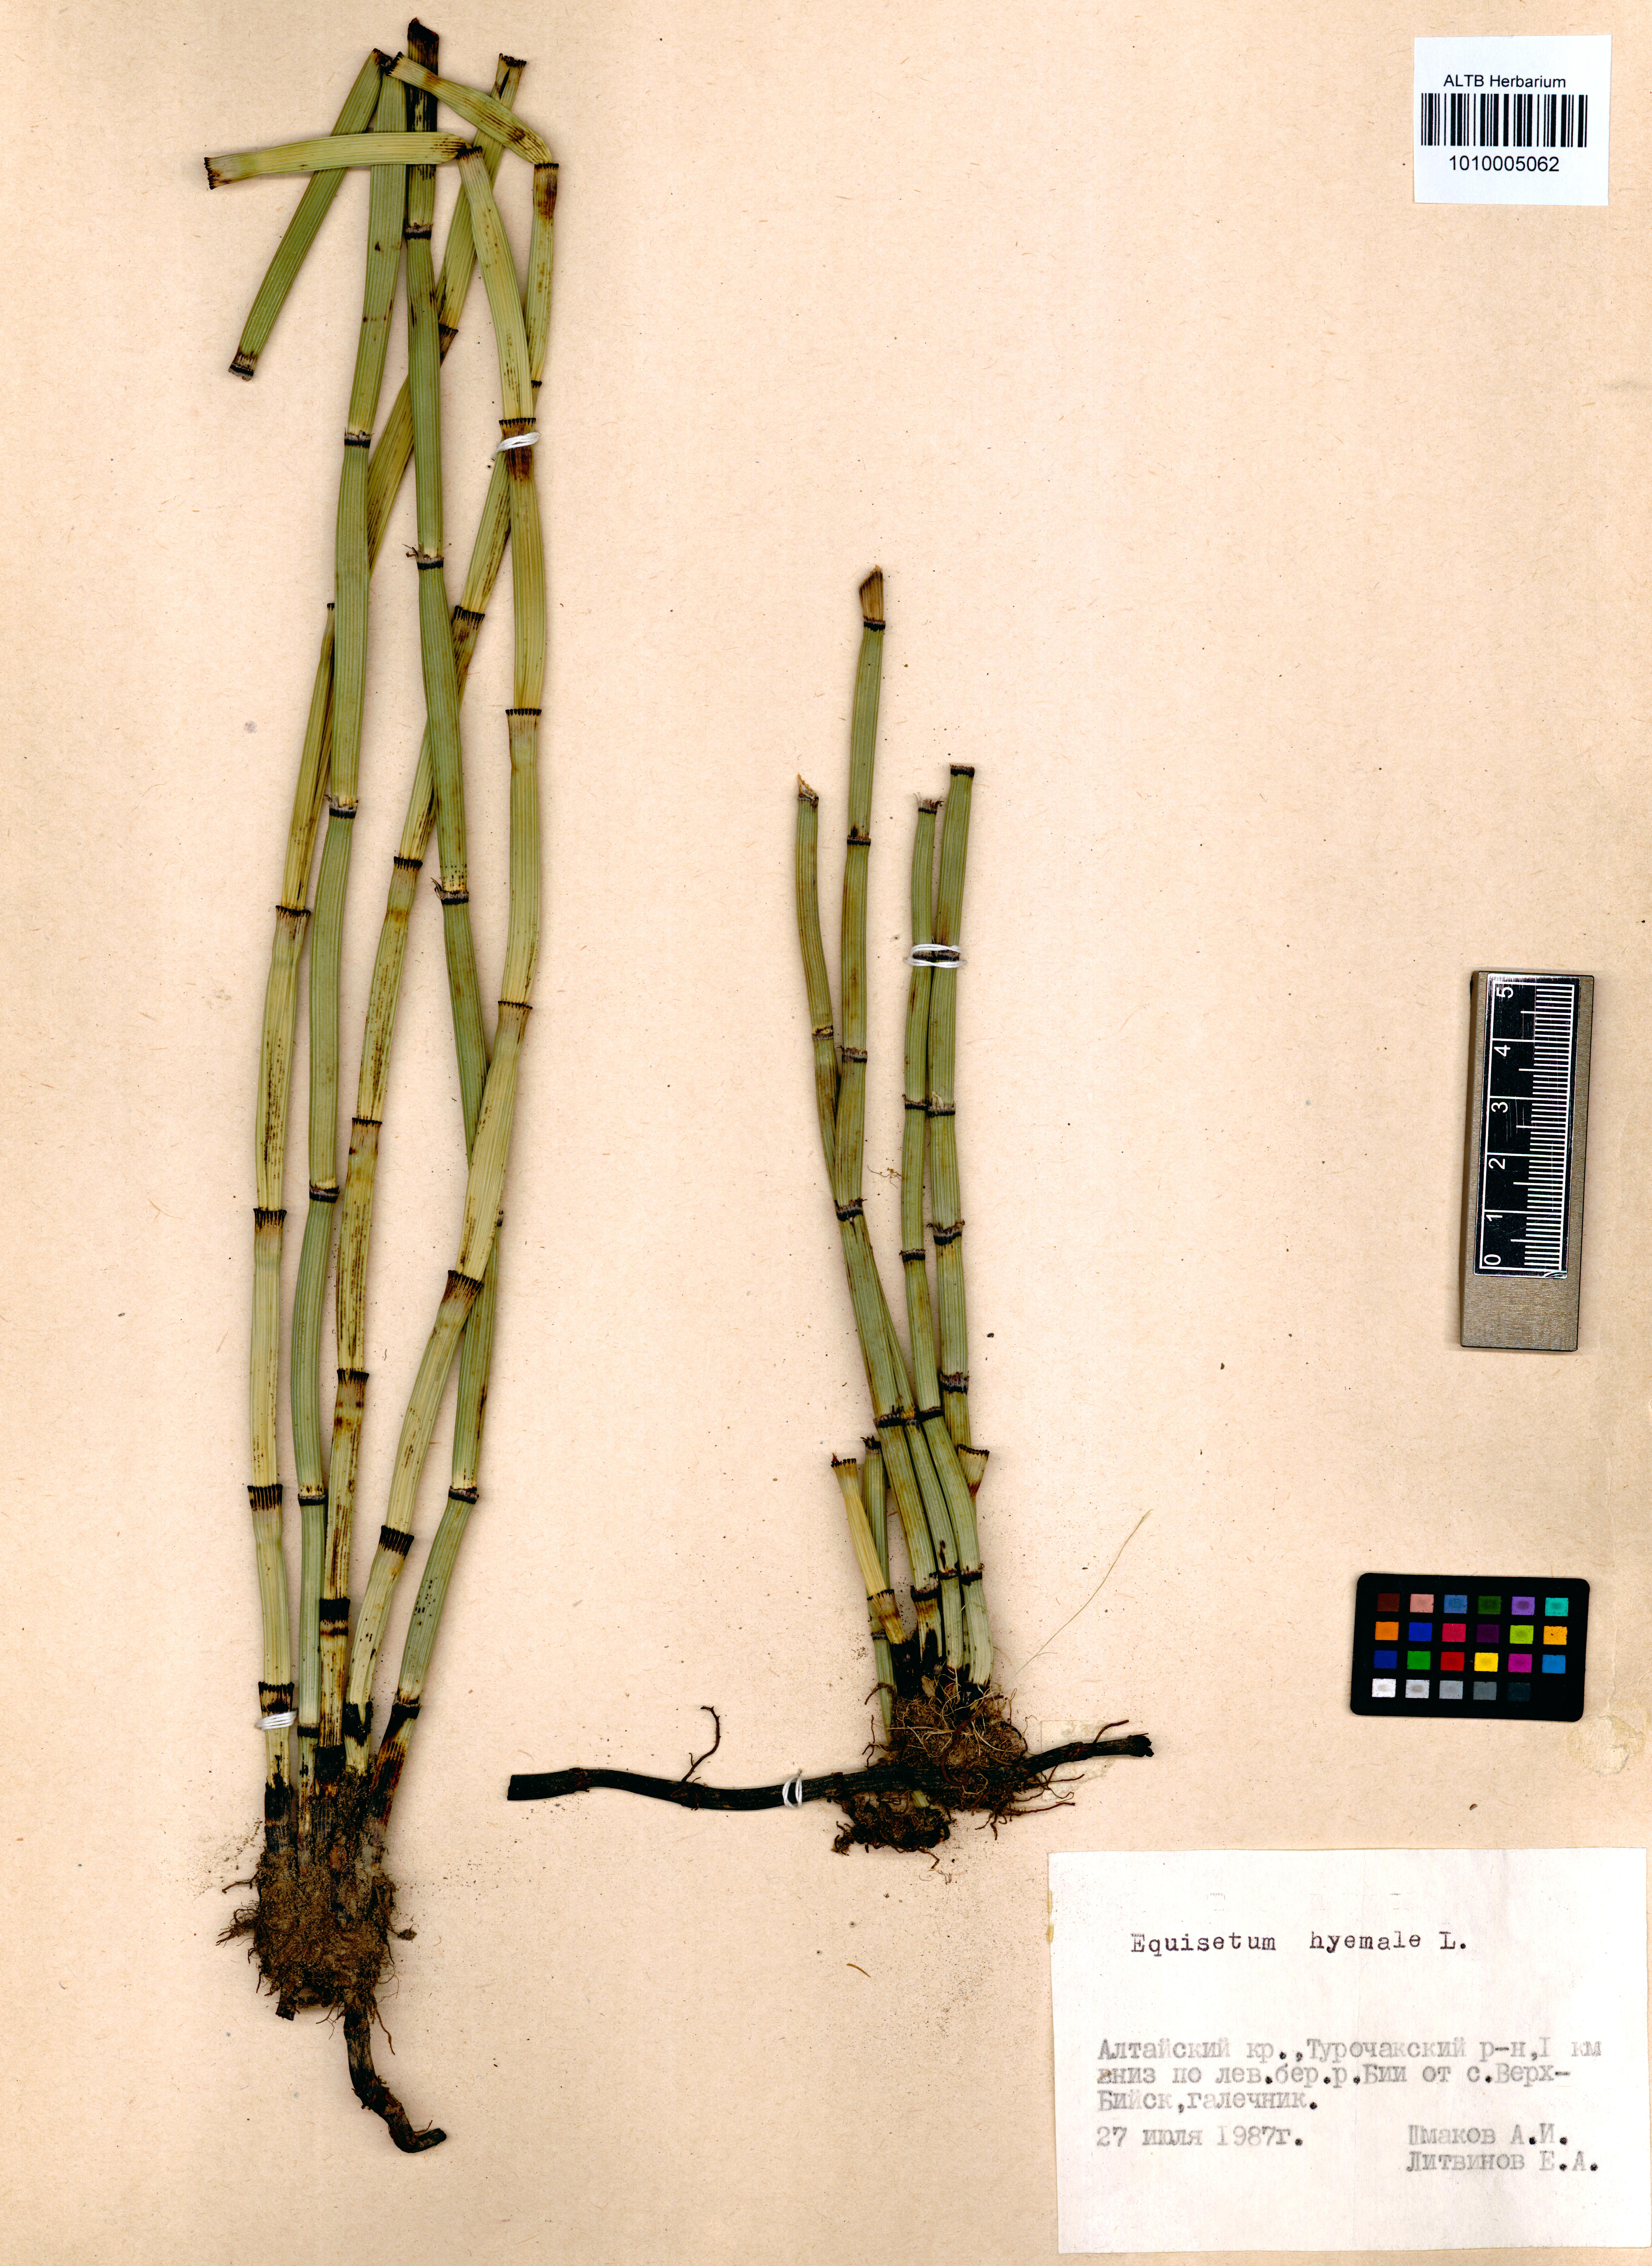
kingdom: Plantae
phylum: Tracheophyta
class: Polypodiopsida
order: Equisetales
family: Equisetaceae
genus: Equisetum
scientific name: Equisetum hyemale
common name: Rough horsetail
